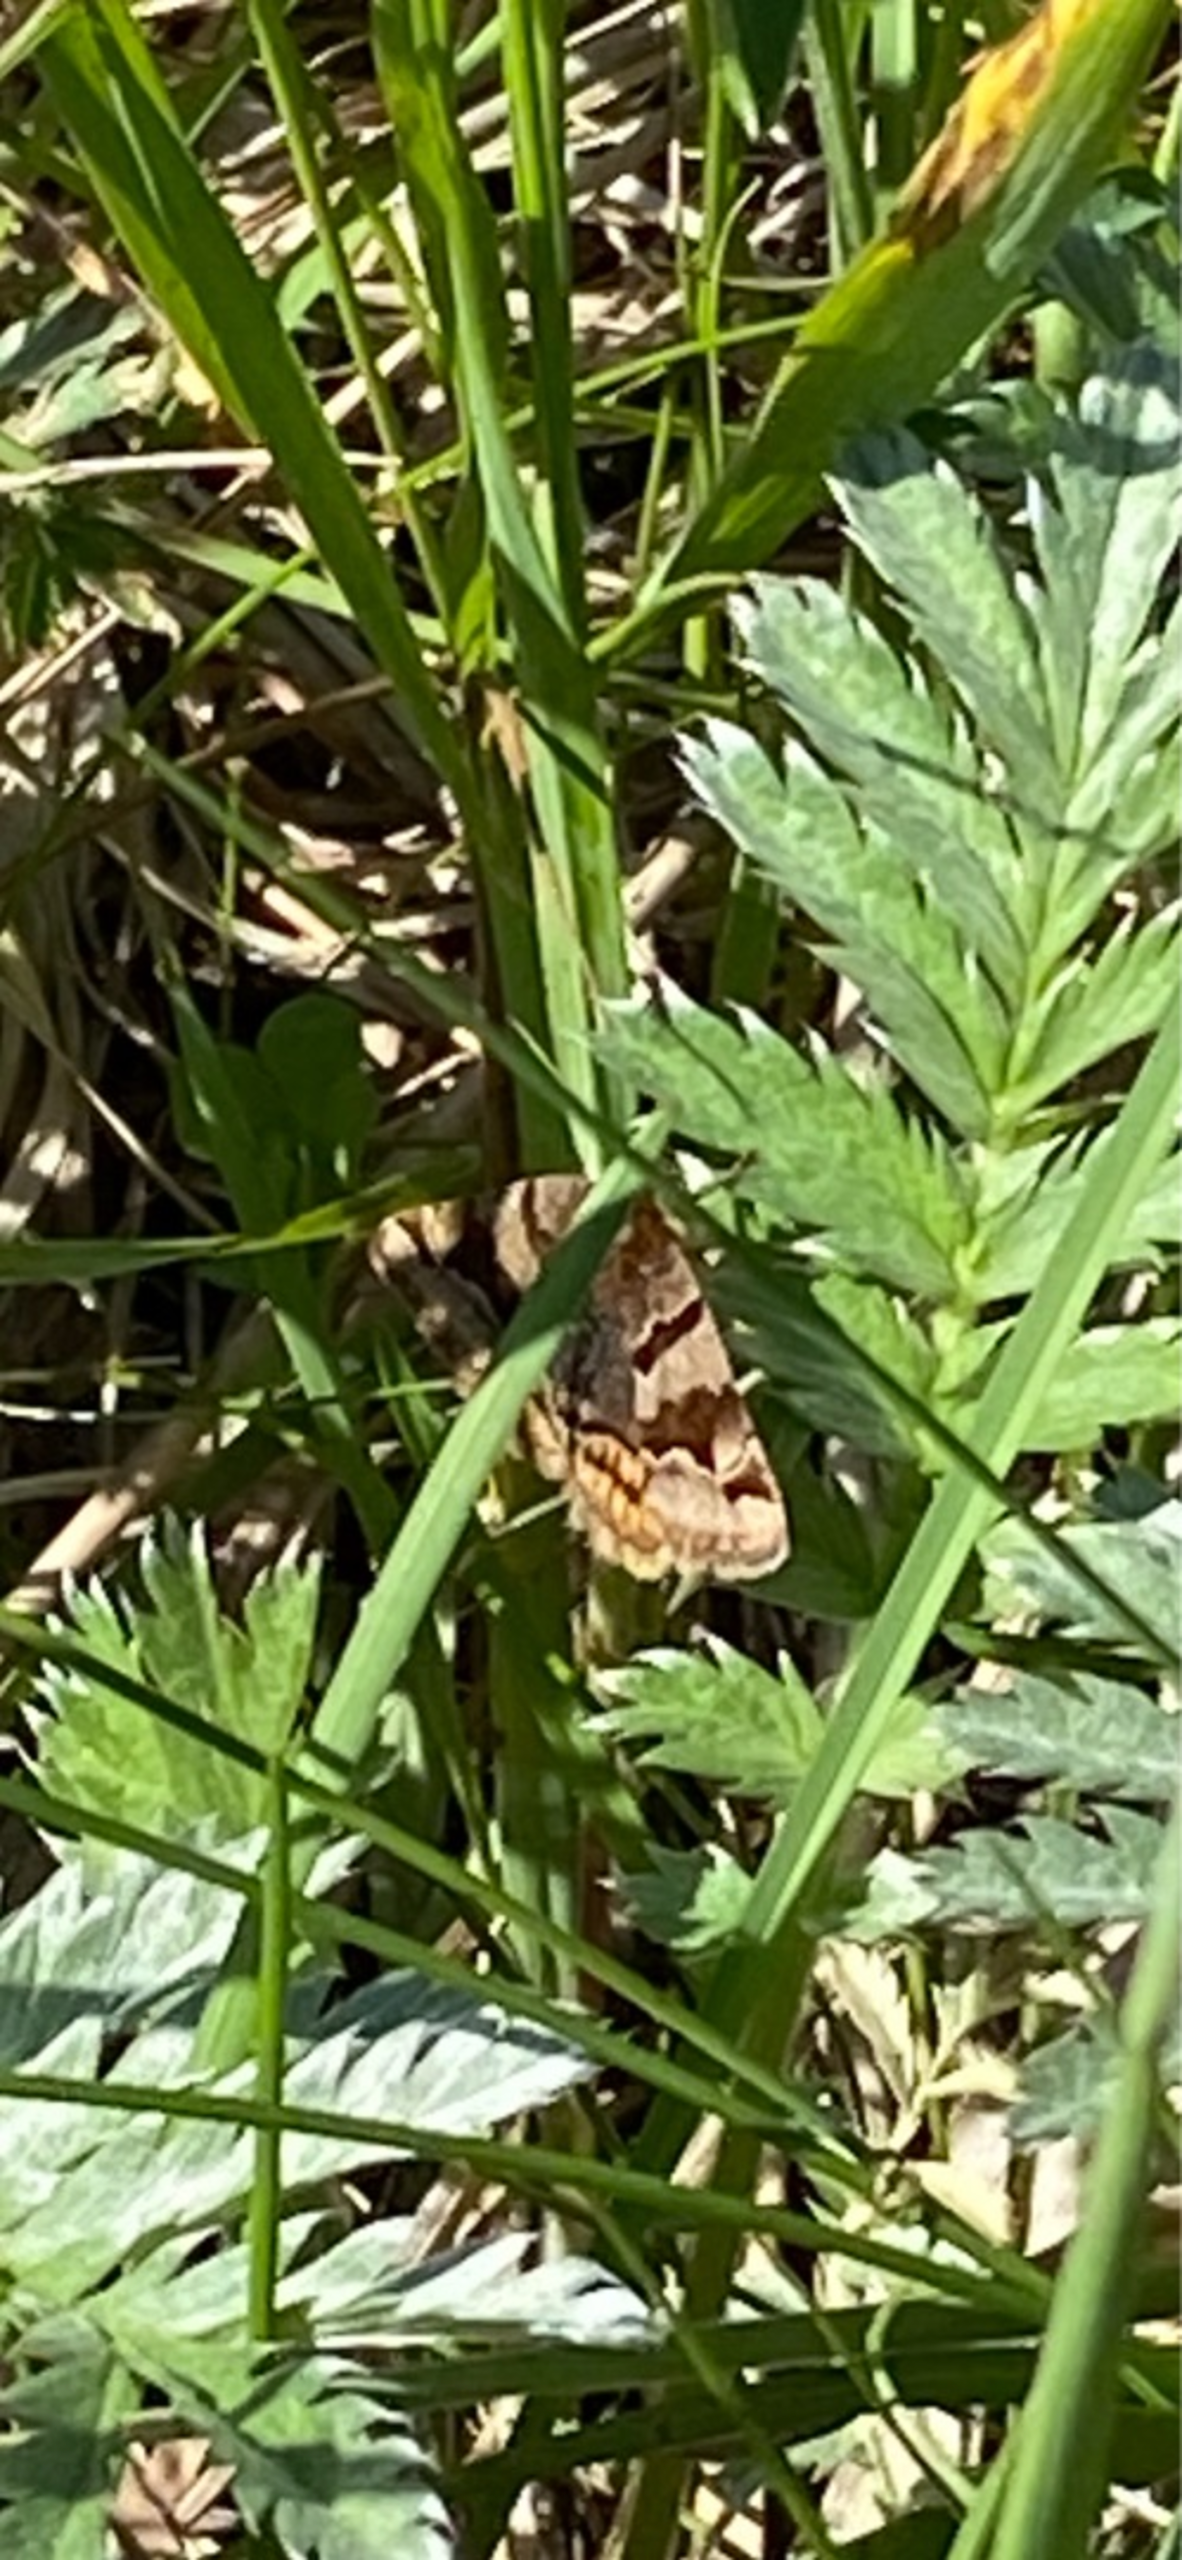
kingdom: Animalia
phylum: Arthropoda
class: Insecta
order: Lepidoptera
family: Erebidae
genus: Euclidia
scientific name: Euclidia glyphica
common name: Brun kløverugle
